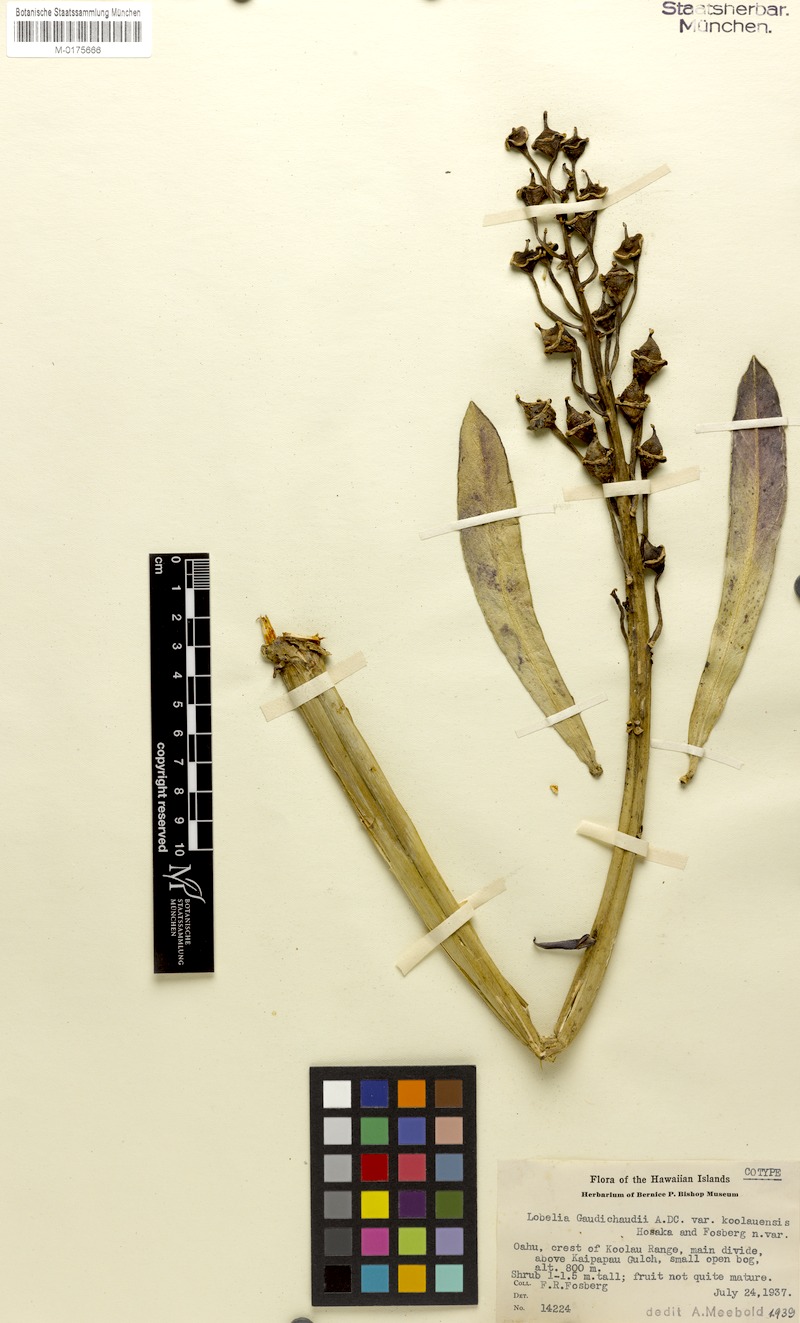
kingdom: Plantae
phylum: Tracheophyta
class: Magnoliopsida
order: Asterales
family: Campanulaceae
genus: Lobelia
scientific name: Lobelia koolauensis
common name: Koolau range lobelia
